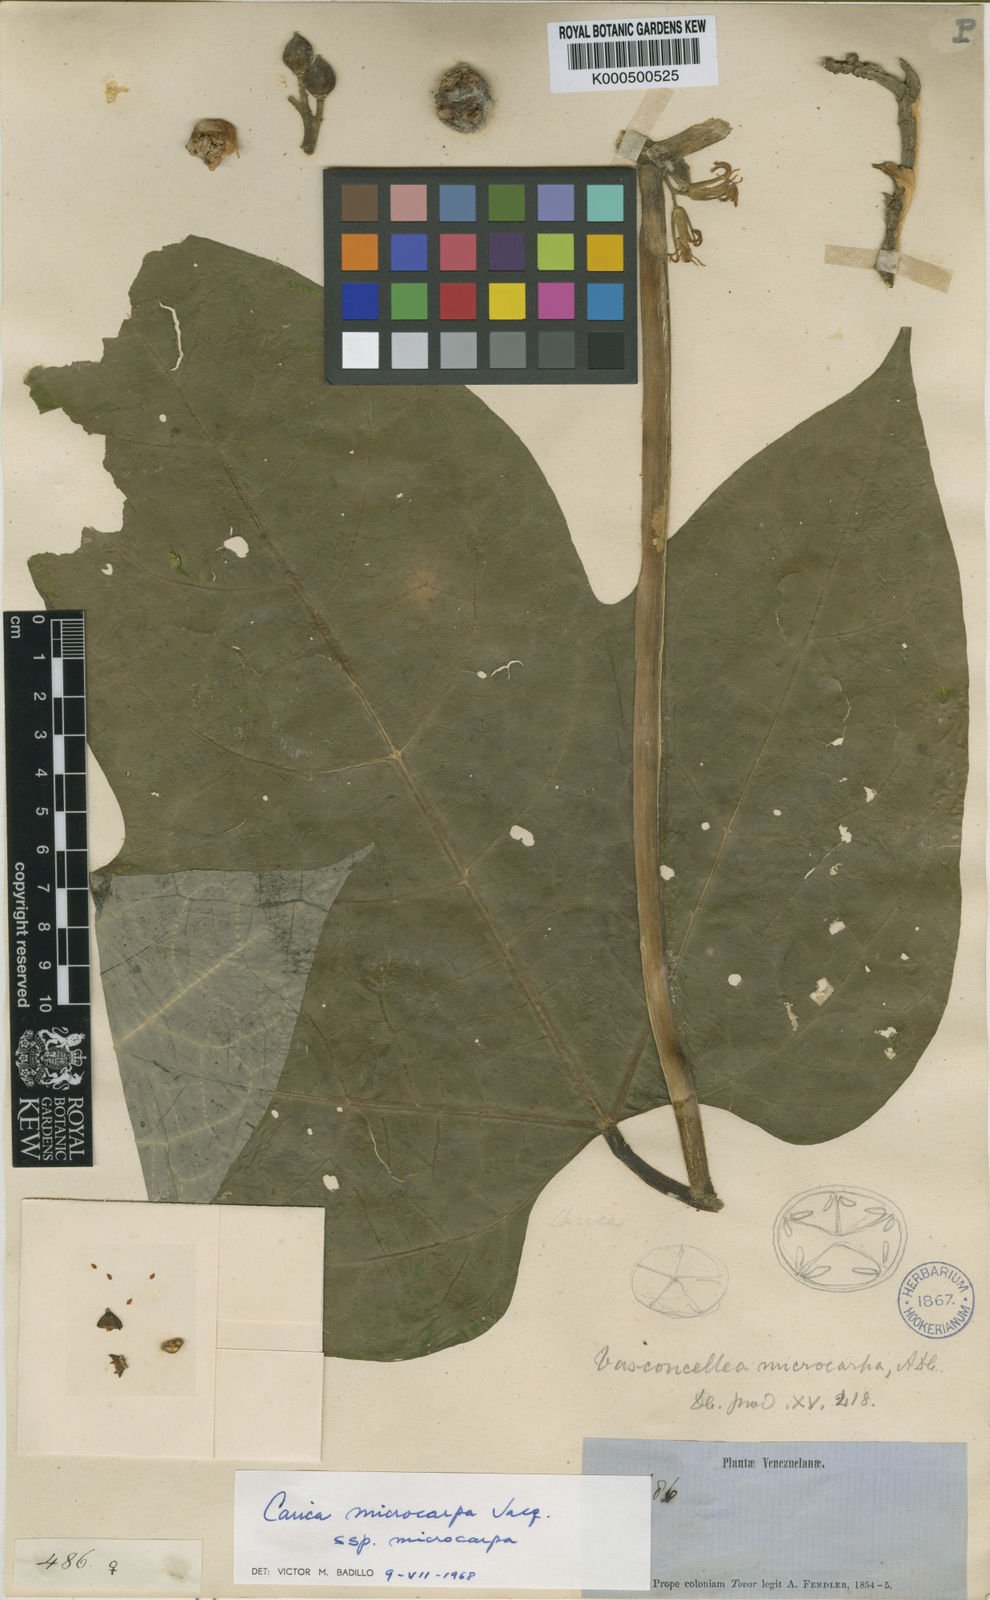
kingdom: Plantae
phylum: Tracheophyta
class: Magnoliopsida
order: Brassicales
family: Caricaceae
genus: Vasconcellea
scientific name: Vasconcellea microcarpa
